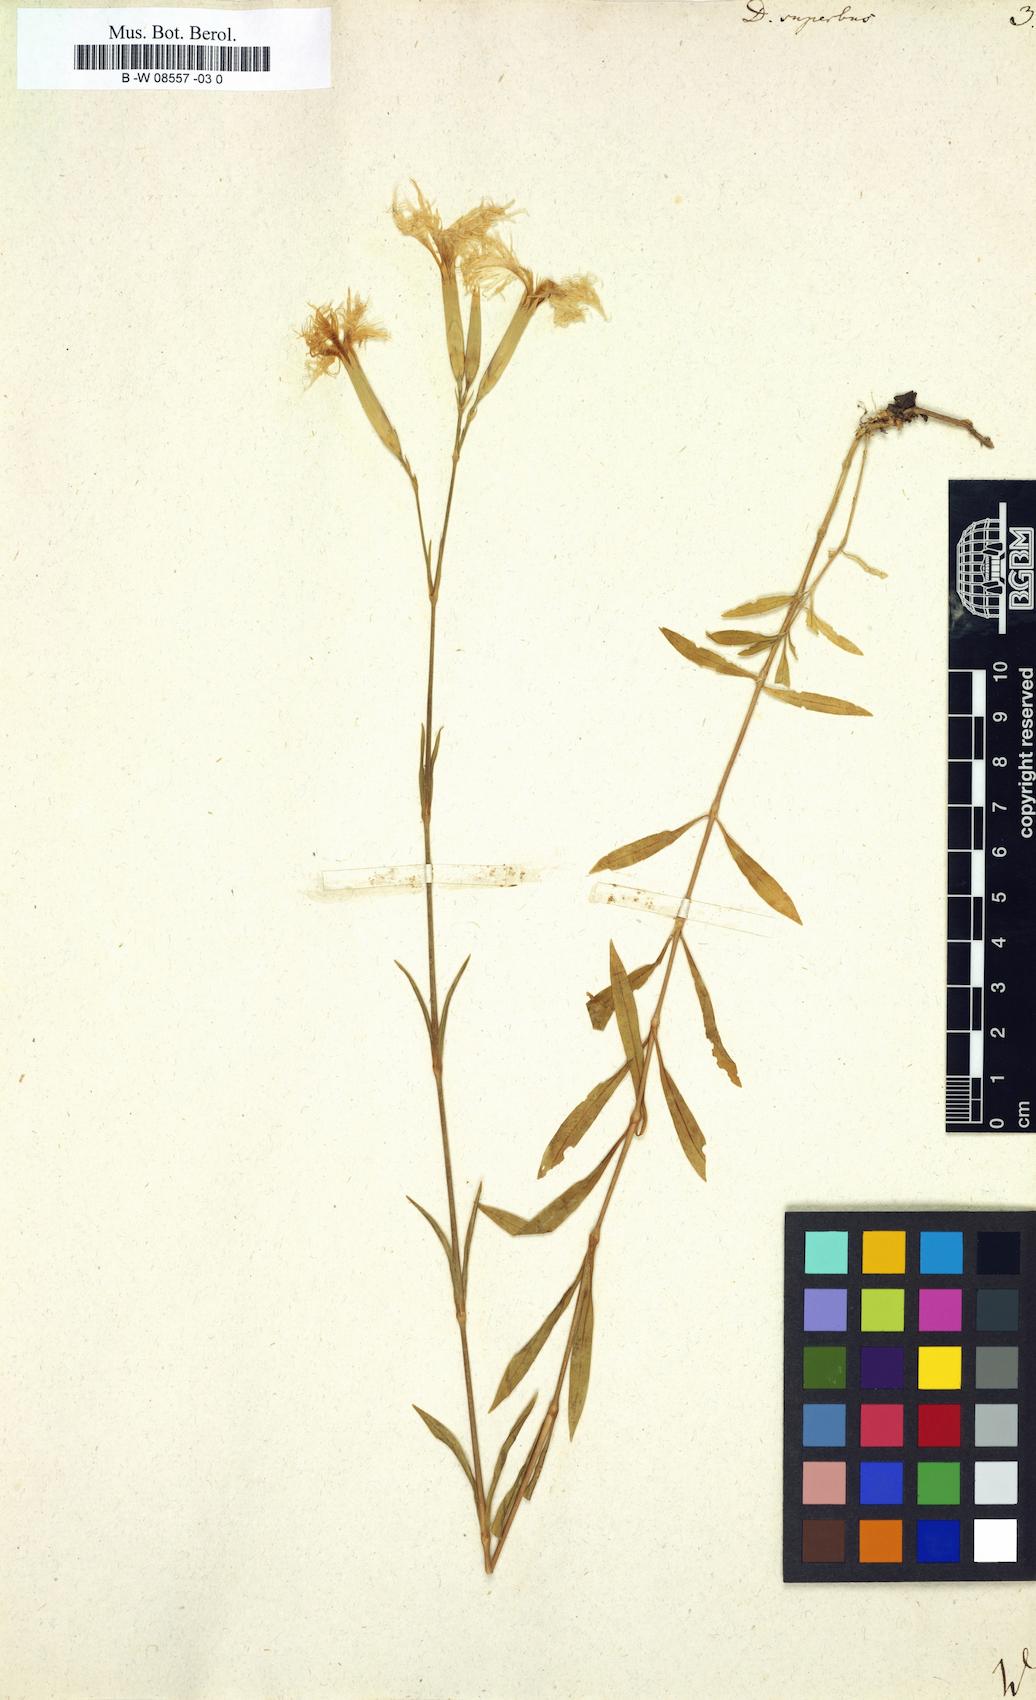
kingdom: Plantae
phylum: Tracheophyta
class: Magnoliopsida
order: Caryophyllales
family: Caryophyllaceae
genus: Dianthus
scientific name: Dianthus superbus
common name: Fringed pink
